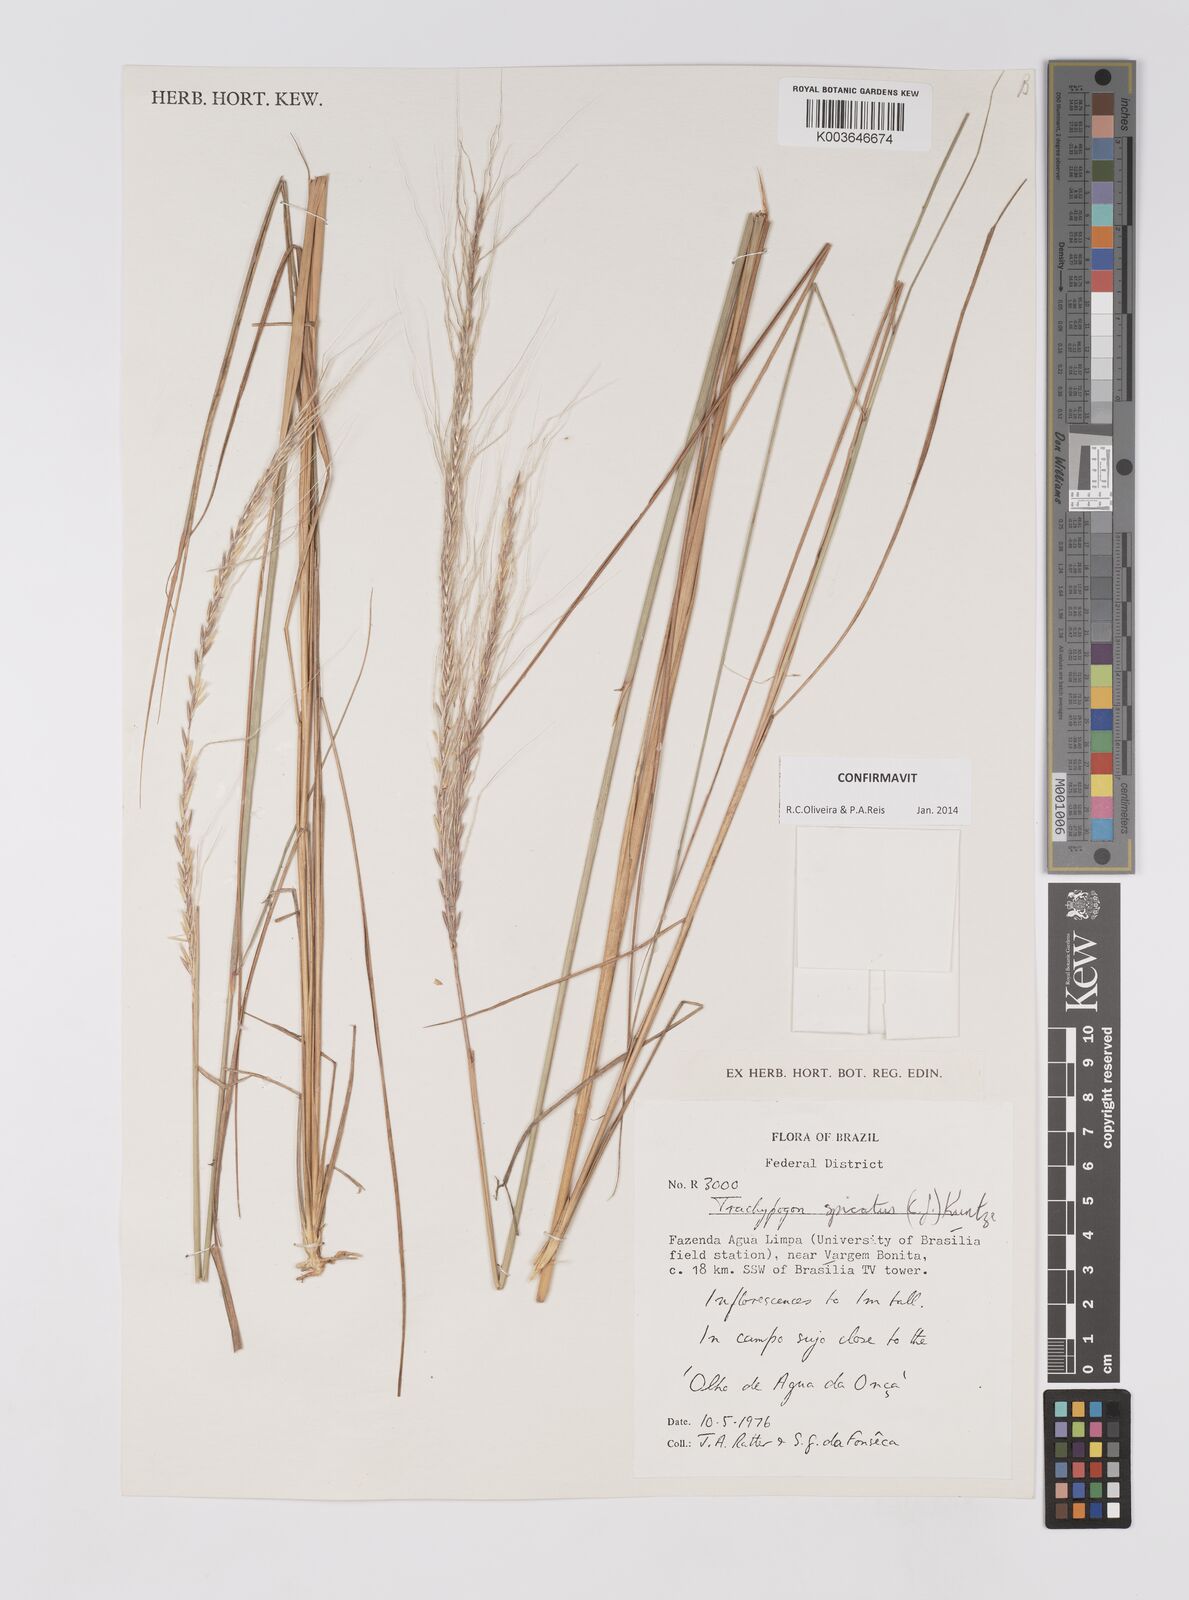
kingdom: Plantae
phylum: Tracheophyta
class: Liliopsida
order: Poales
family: Poaceae
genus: Trachypogon
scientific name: Trachypogon spicatus
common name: Crinkle-awn
